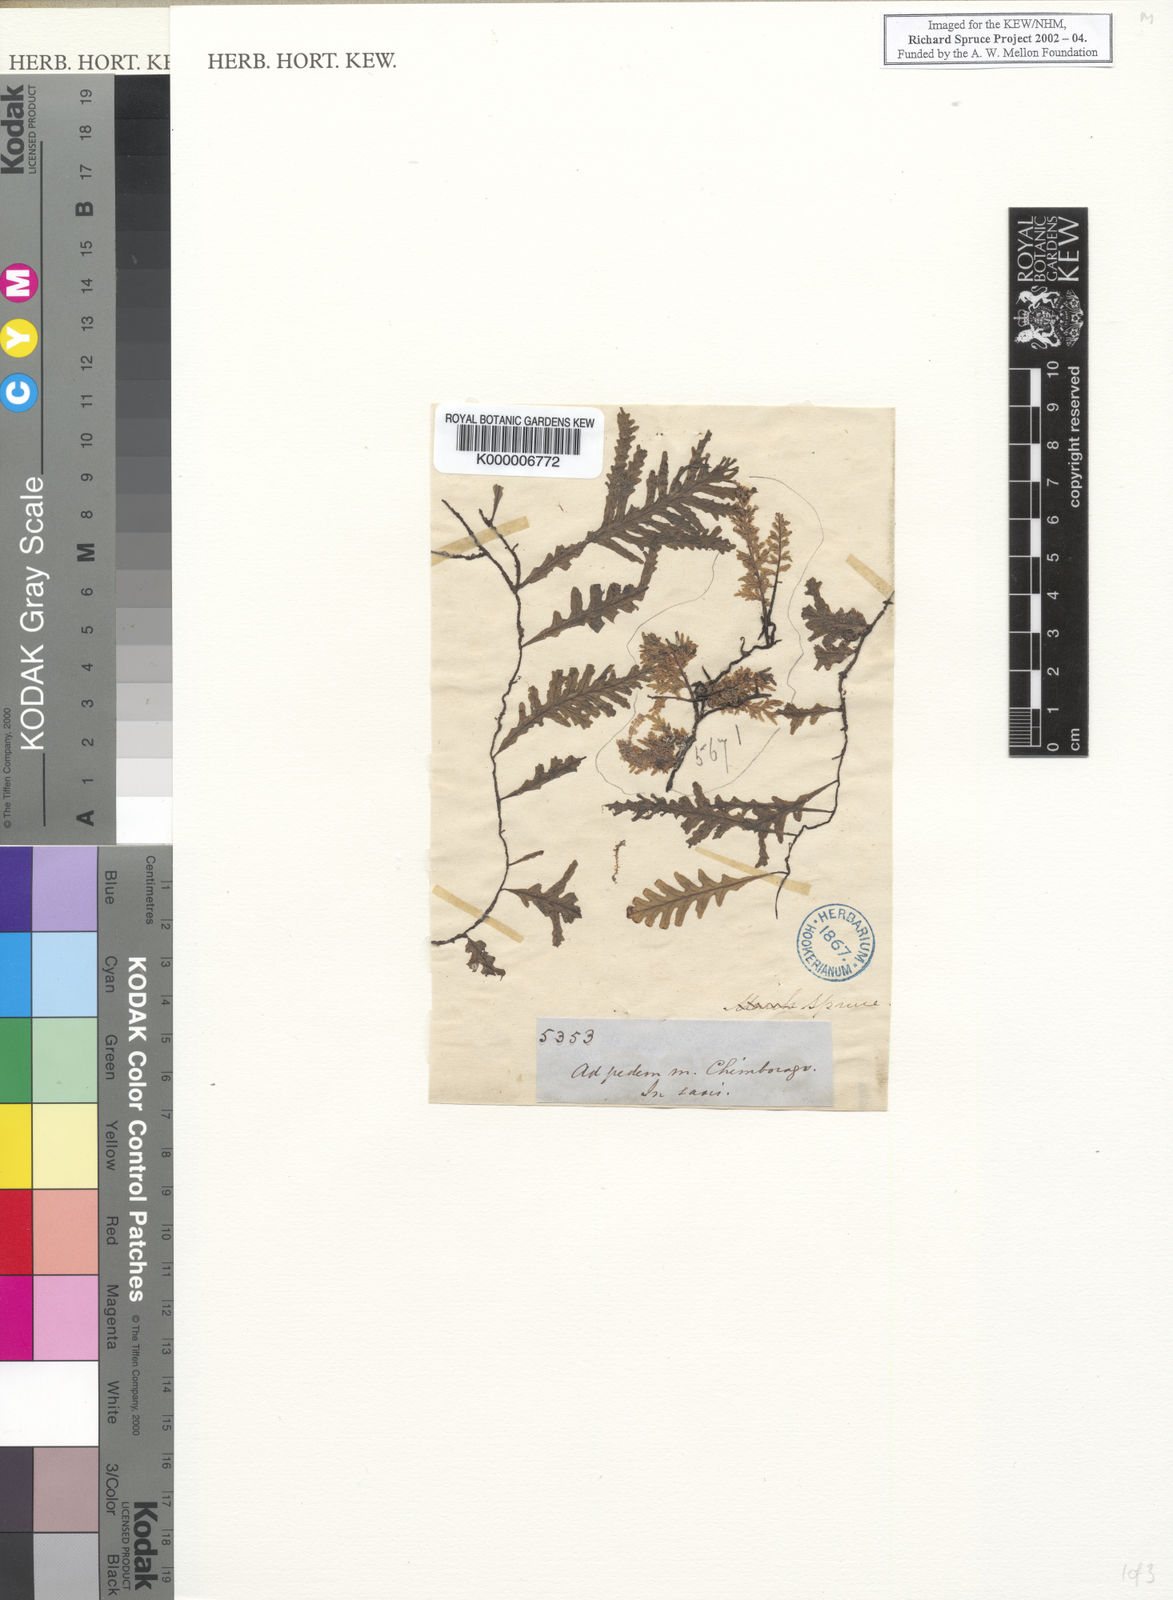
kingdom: Plantae
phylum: Tracheophyta
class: Polypodiopsida
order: Hymenophyllales
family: Hymenophyllaceae
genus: Trichomanes
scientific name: Trichomanes
